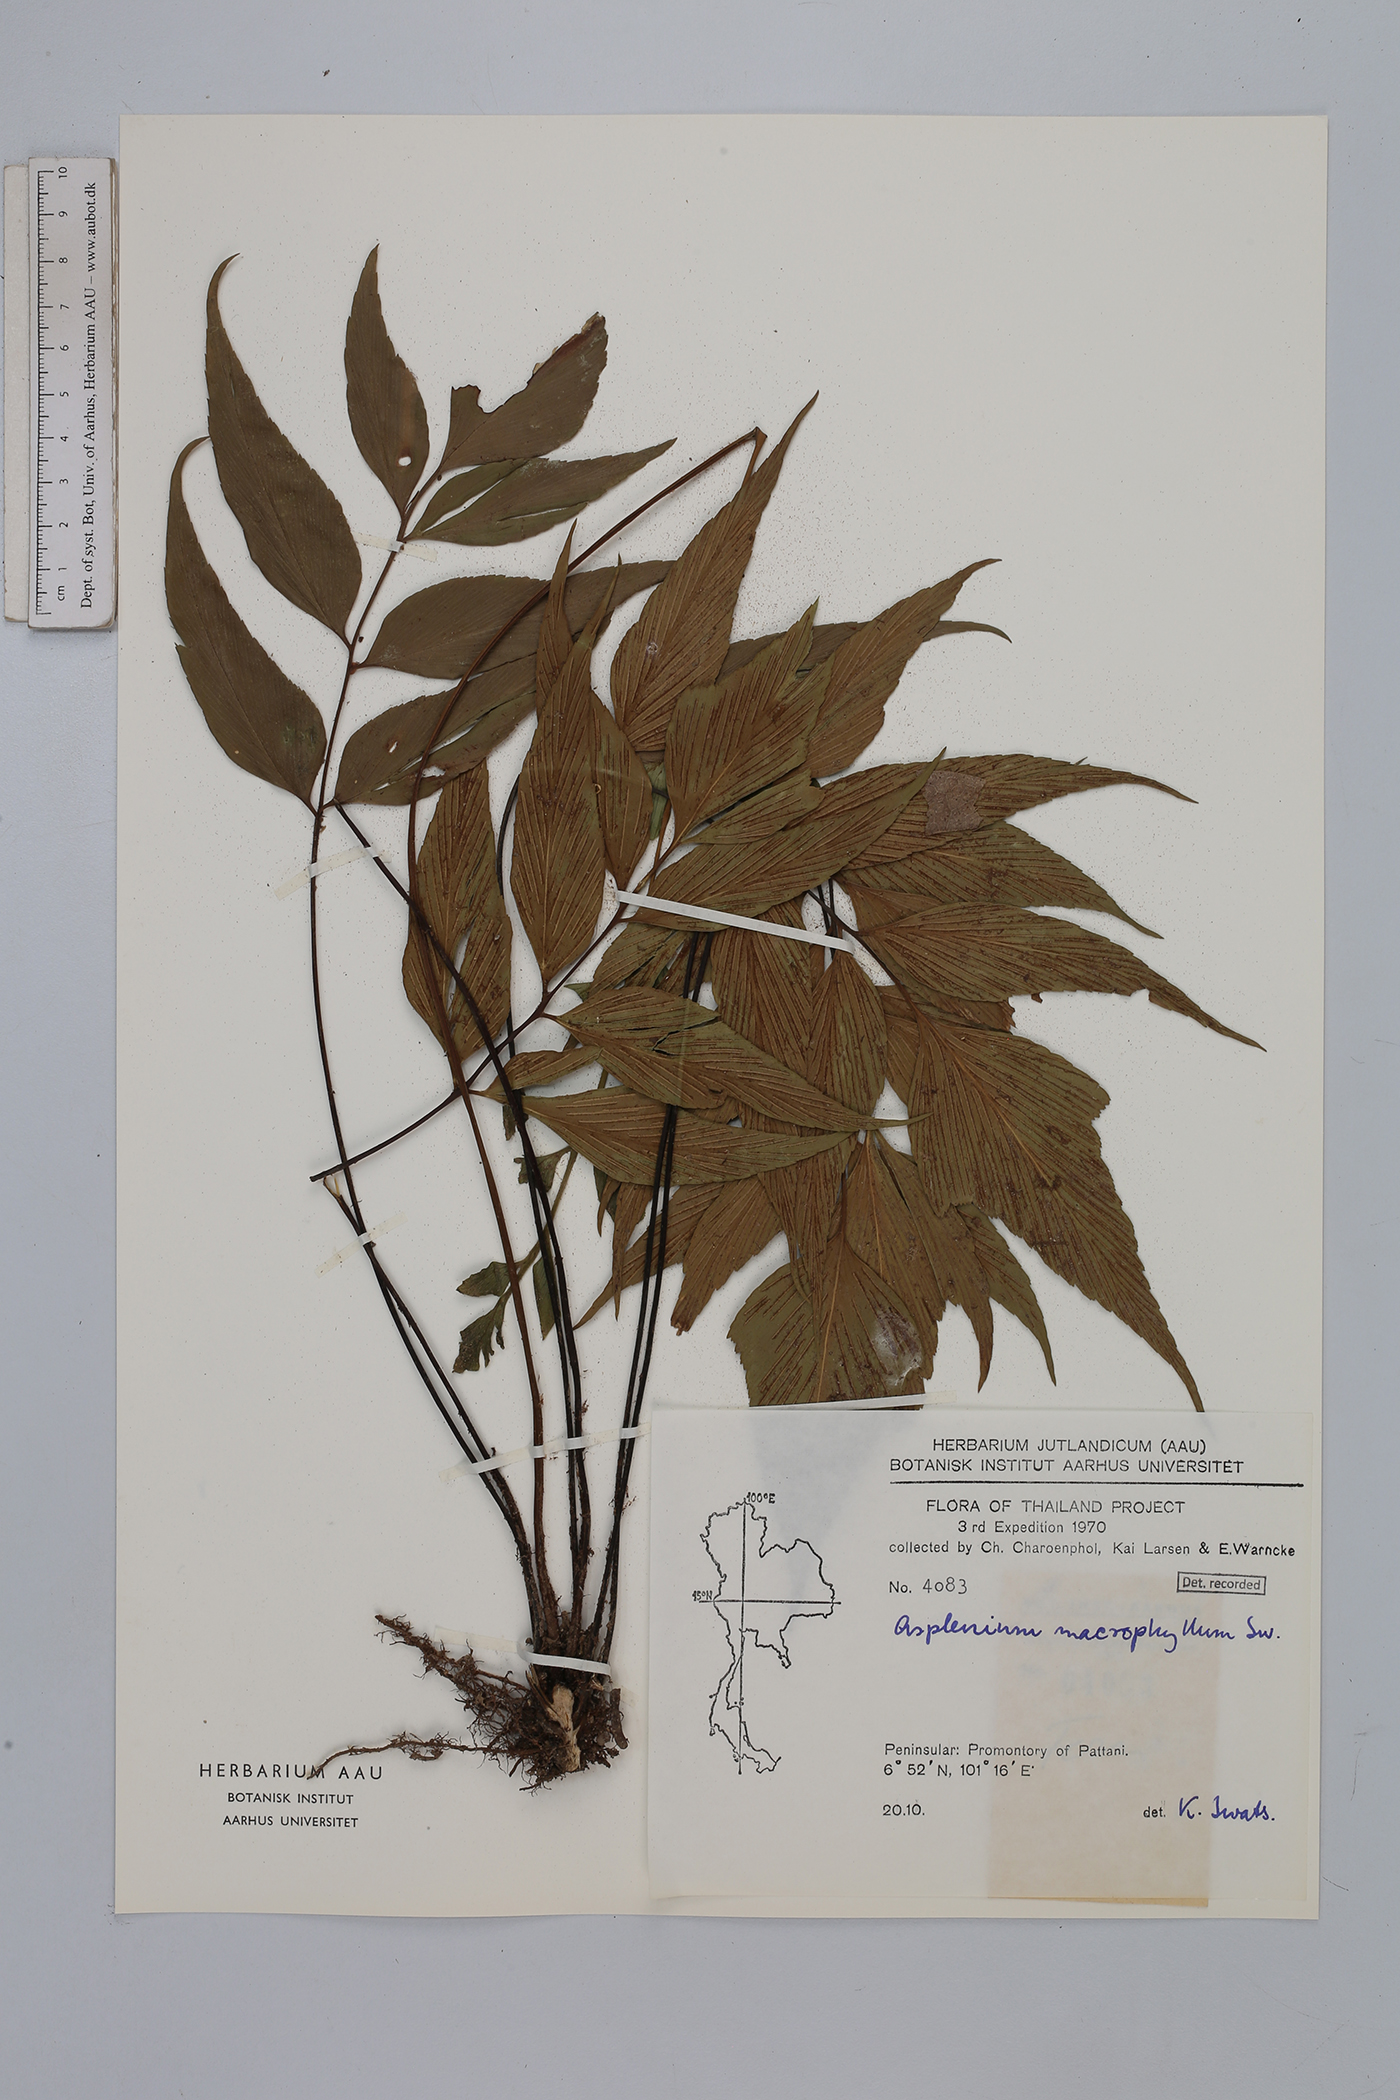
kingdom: Plantae
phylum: Tracheophyta
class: Polypodiopsida
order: Polypodiales
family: Aspleniaceae
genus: Asplenium
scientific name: Asplenium macrophyllum
